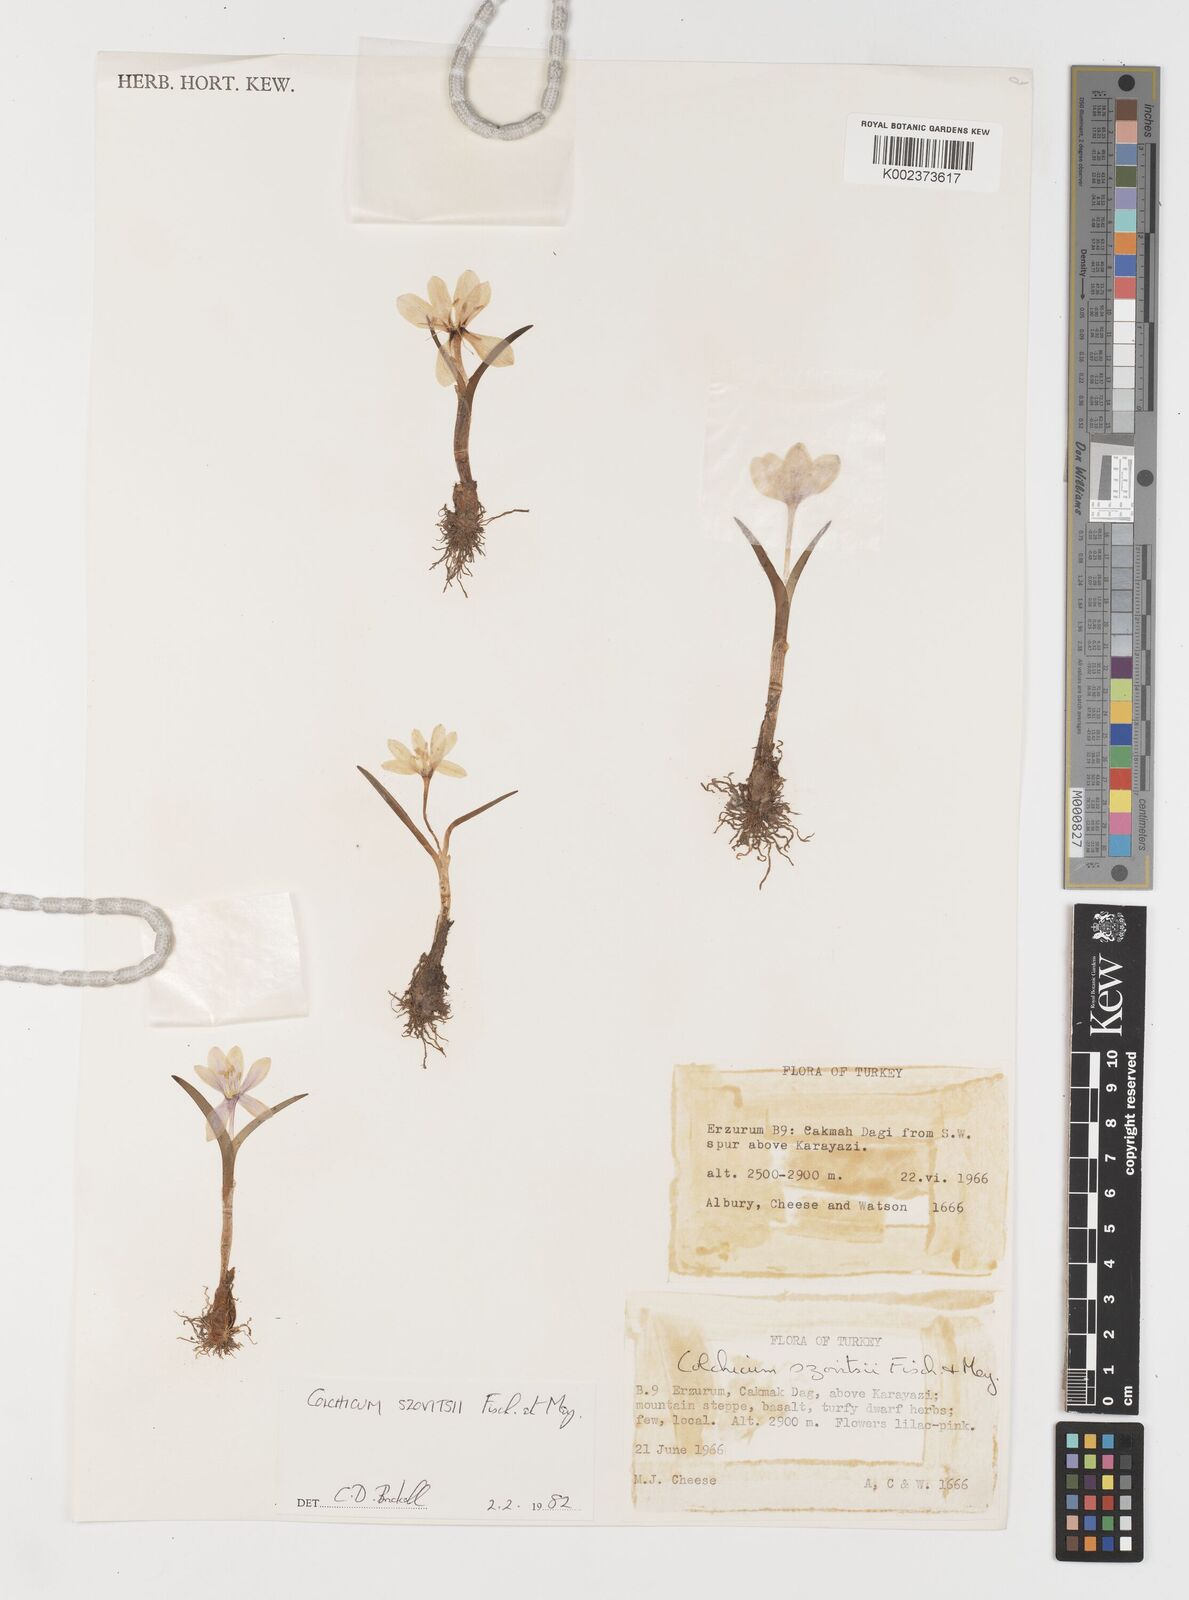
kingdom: Plantae
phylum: Tracheophyta
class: Liliopsida
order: Liliales
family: Colchicaceae
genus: Colchicum
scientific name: Colchicum szovitsii
